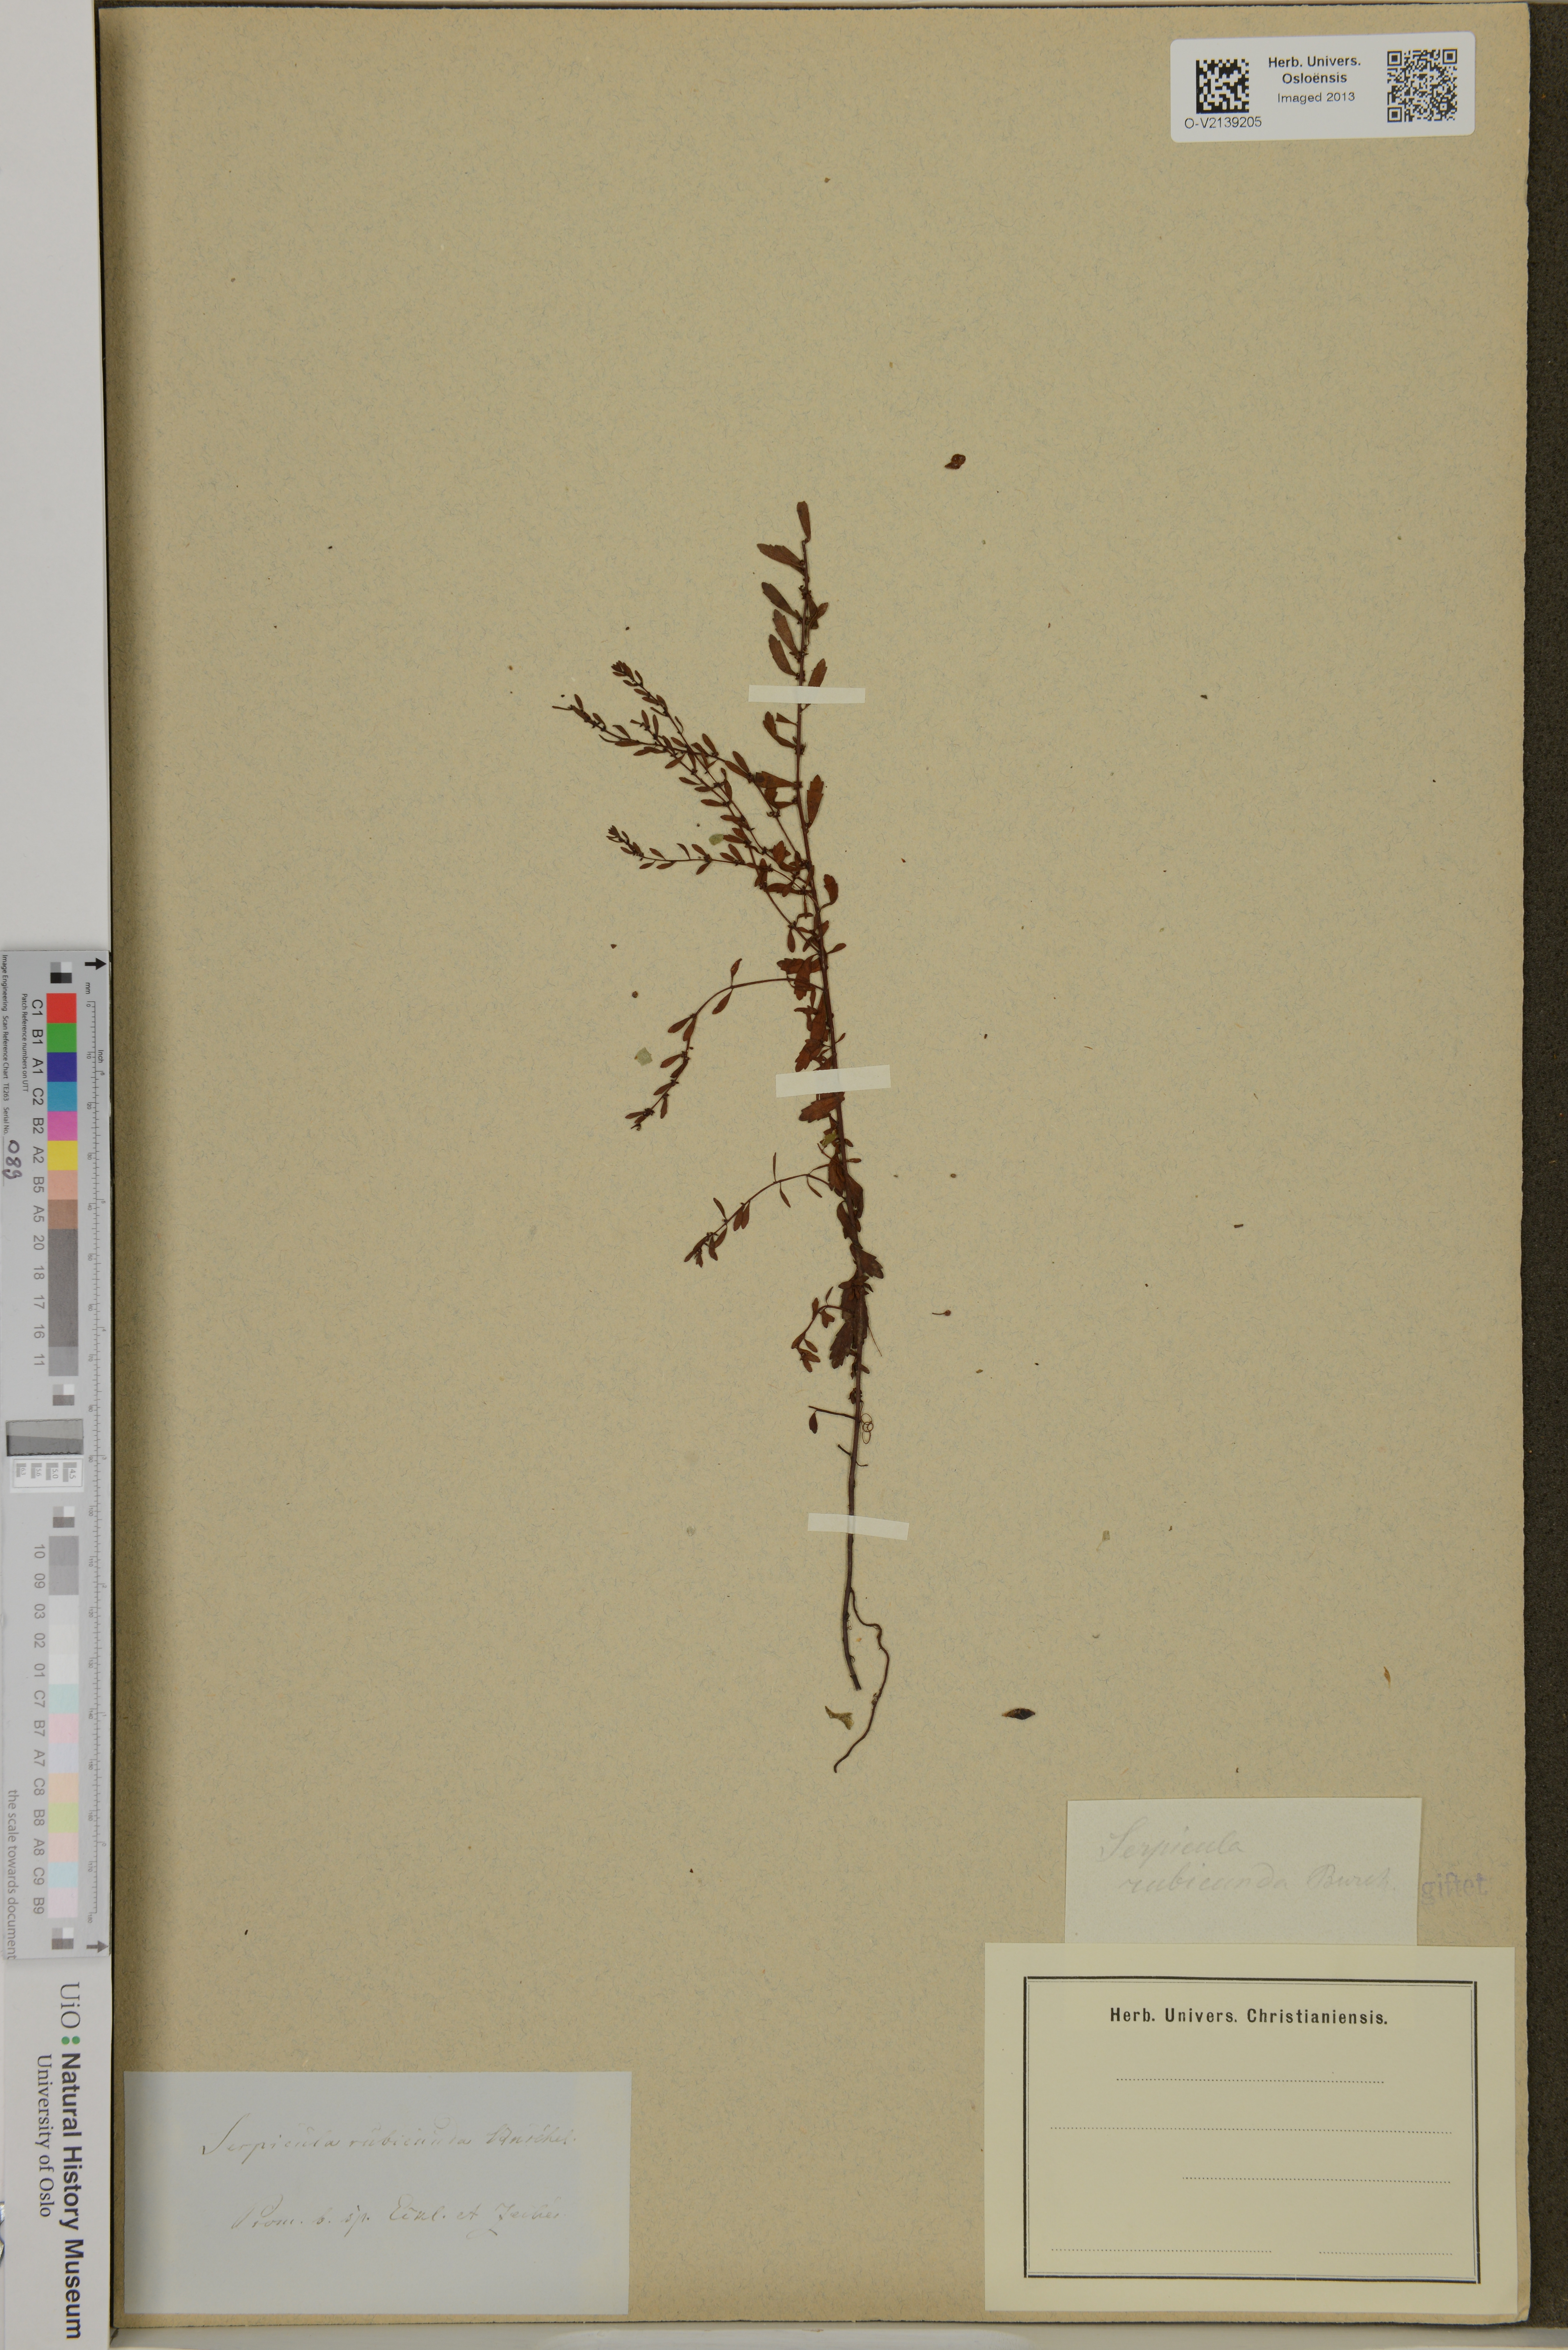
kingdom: Plantae
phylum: Tracheophyta
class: Magnoliopsida
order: Saxifragales
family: Haloragaceae
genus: Laurembergia
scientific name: Laurembergia repens
